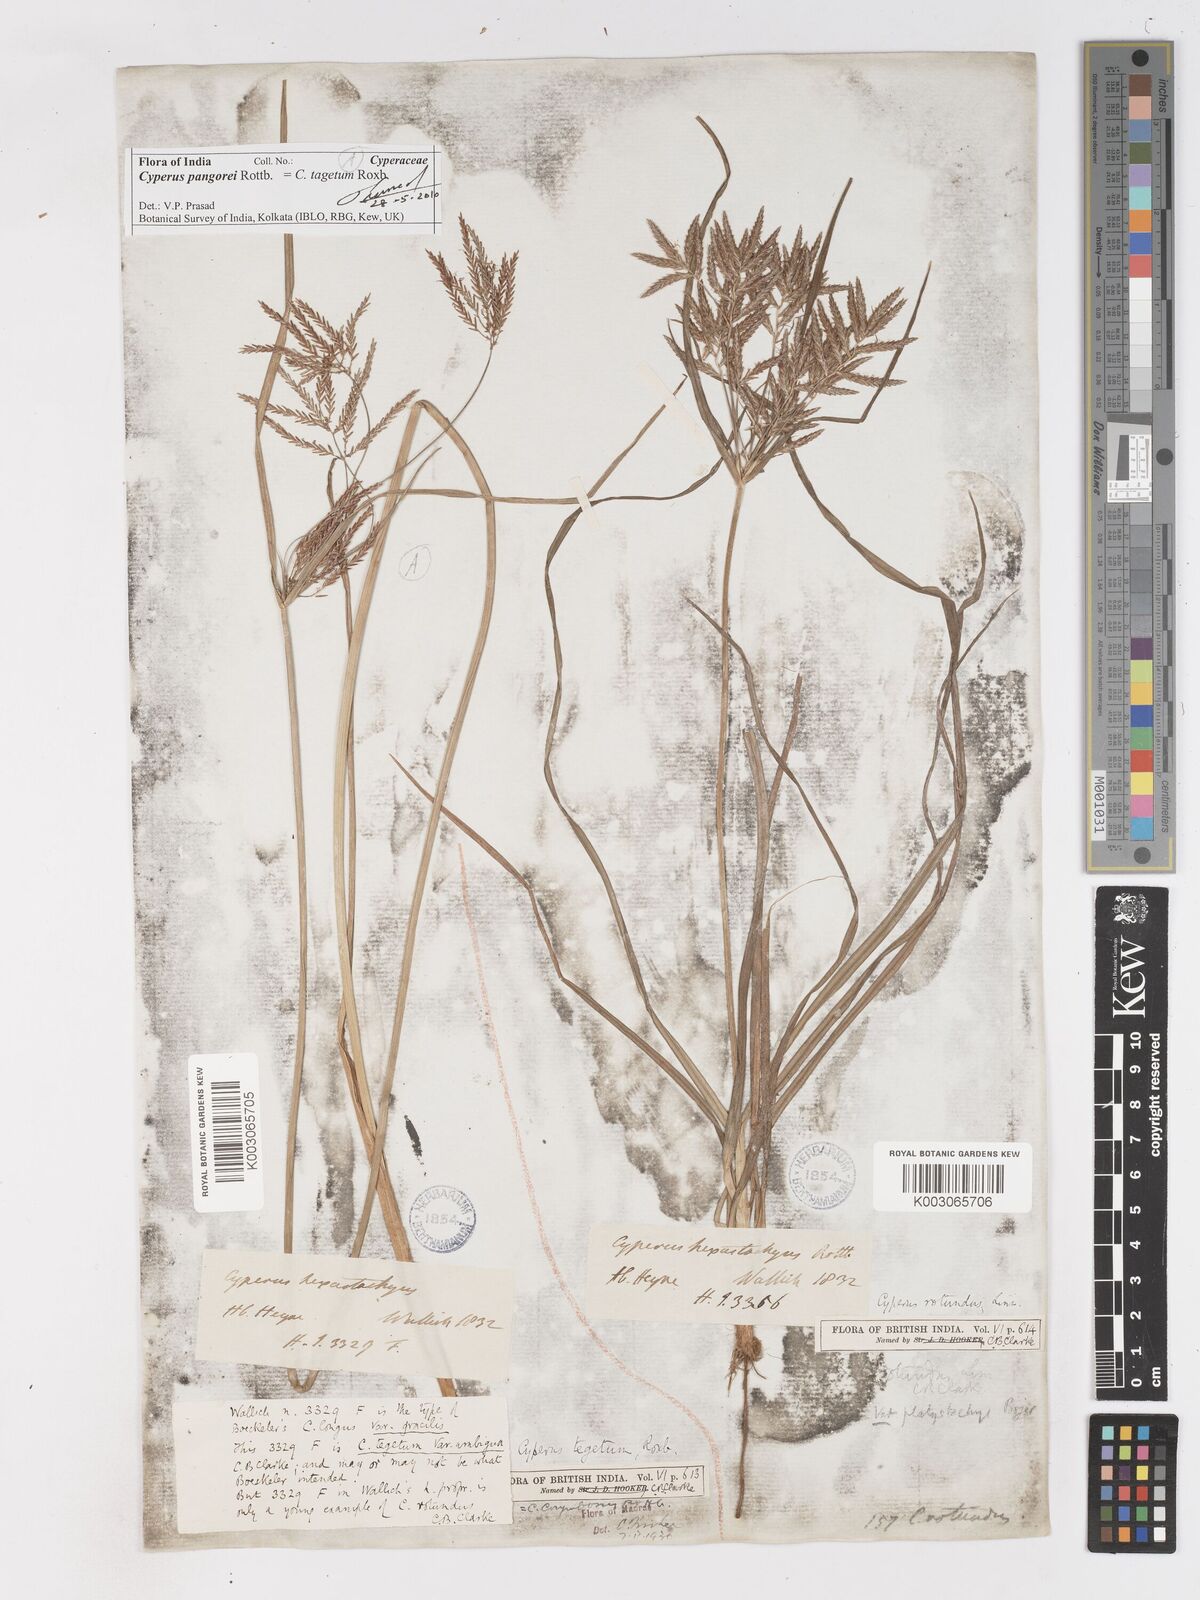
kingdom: Plantae
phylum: Tracheophyta
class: Liliopsida
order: Poales
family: Cyperaceae
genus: Cyperus
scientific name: Cyperus pangorei
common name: Mat sedge
